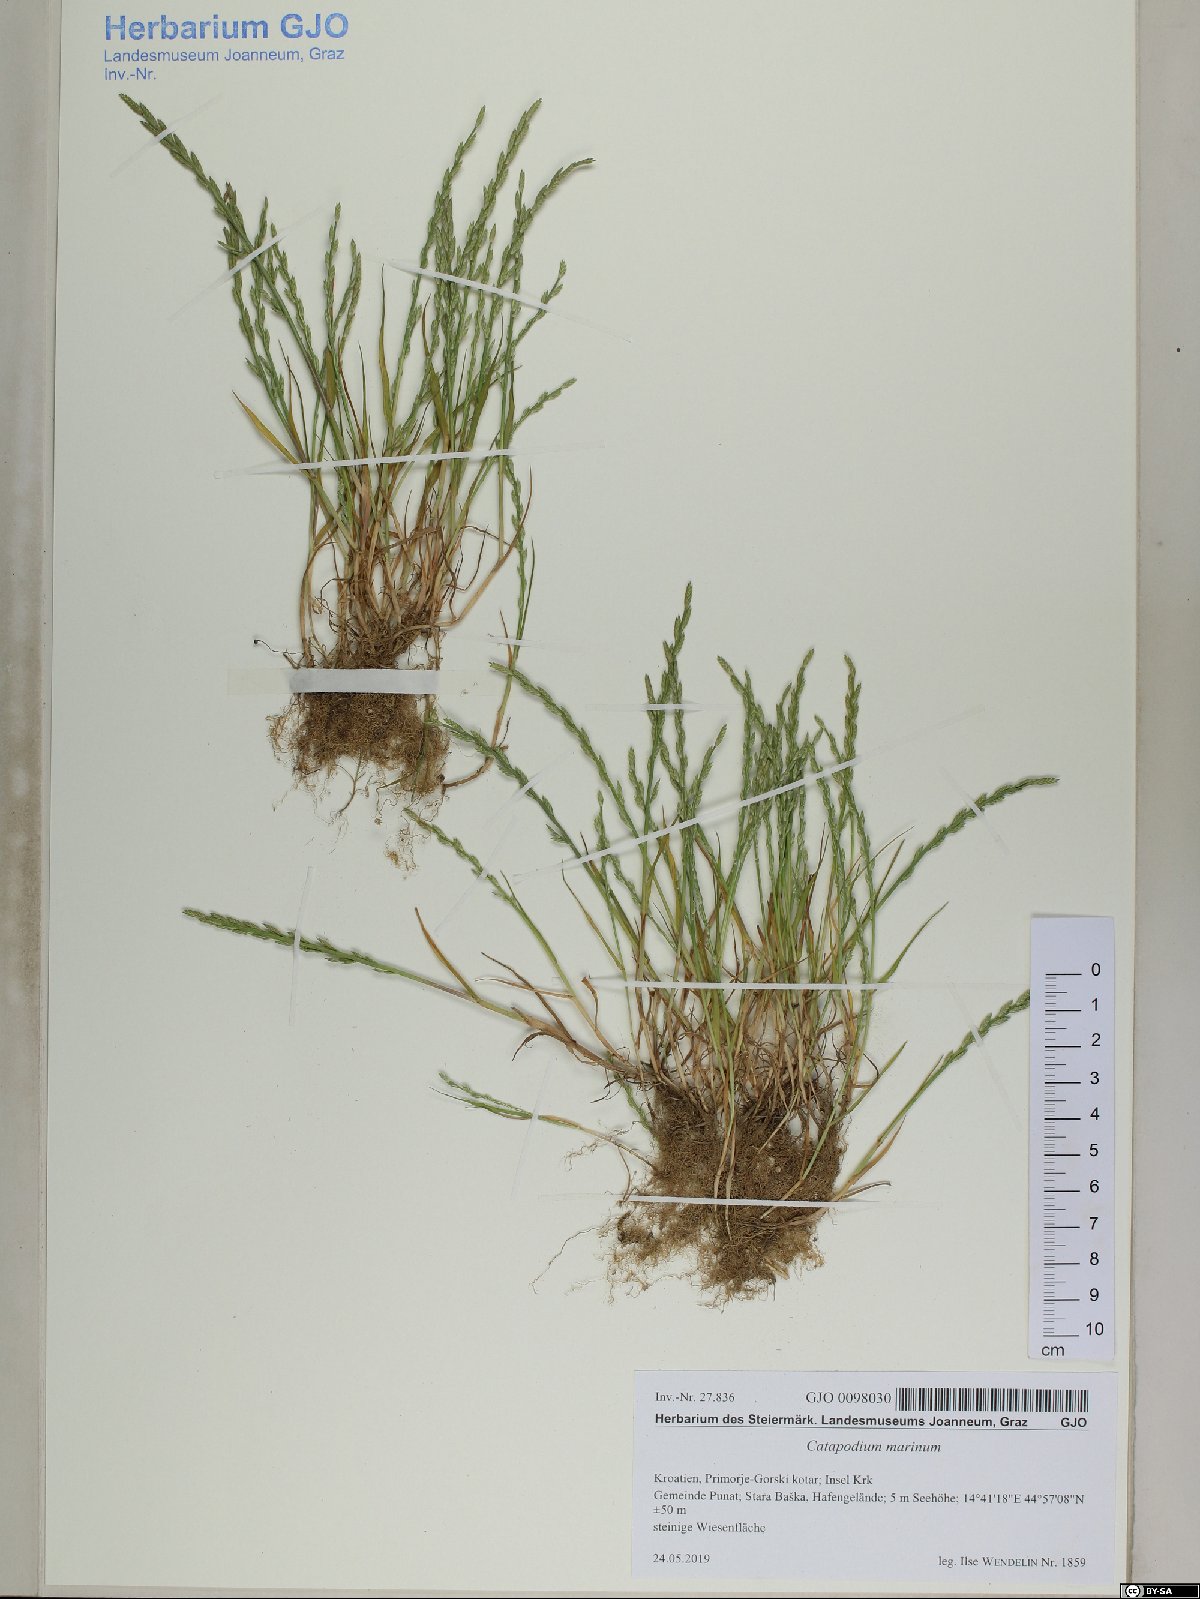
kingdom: Plantae
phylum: Tracheophyta
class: Liliopsida
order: Poales
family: Poaceae
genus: Catapodium
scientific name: Catapodium marinum
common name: Sea fern-grass
